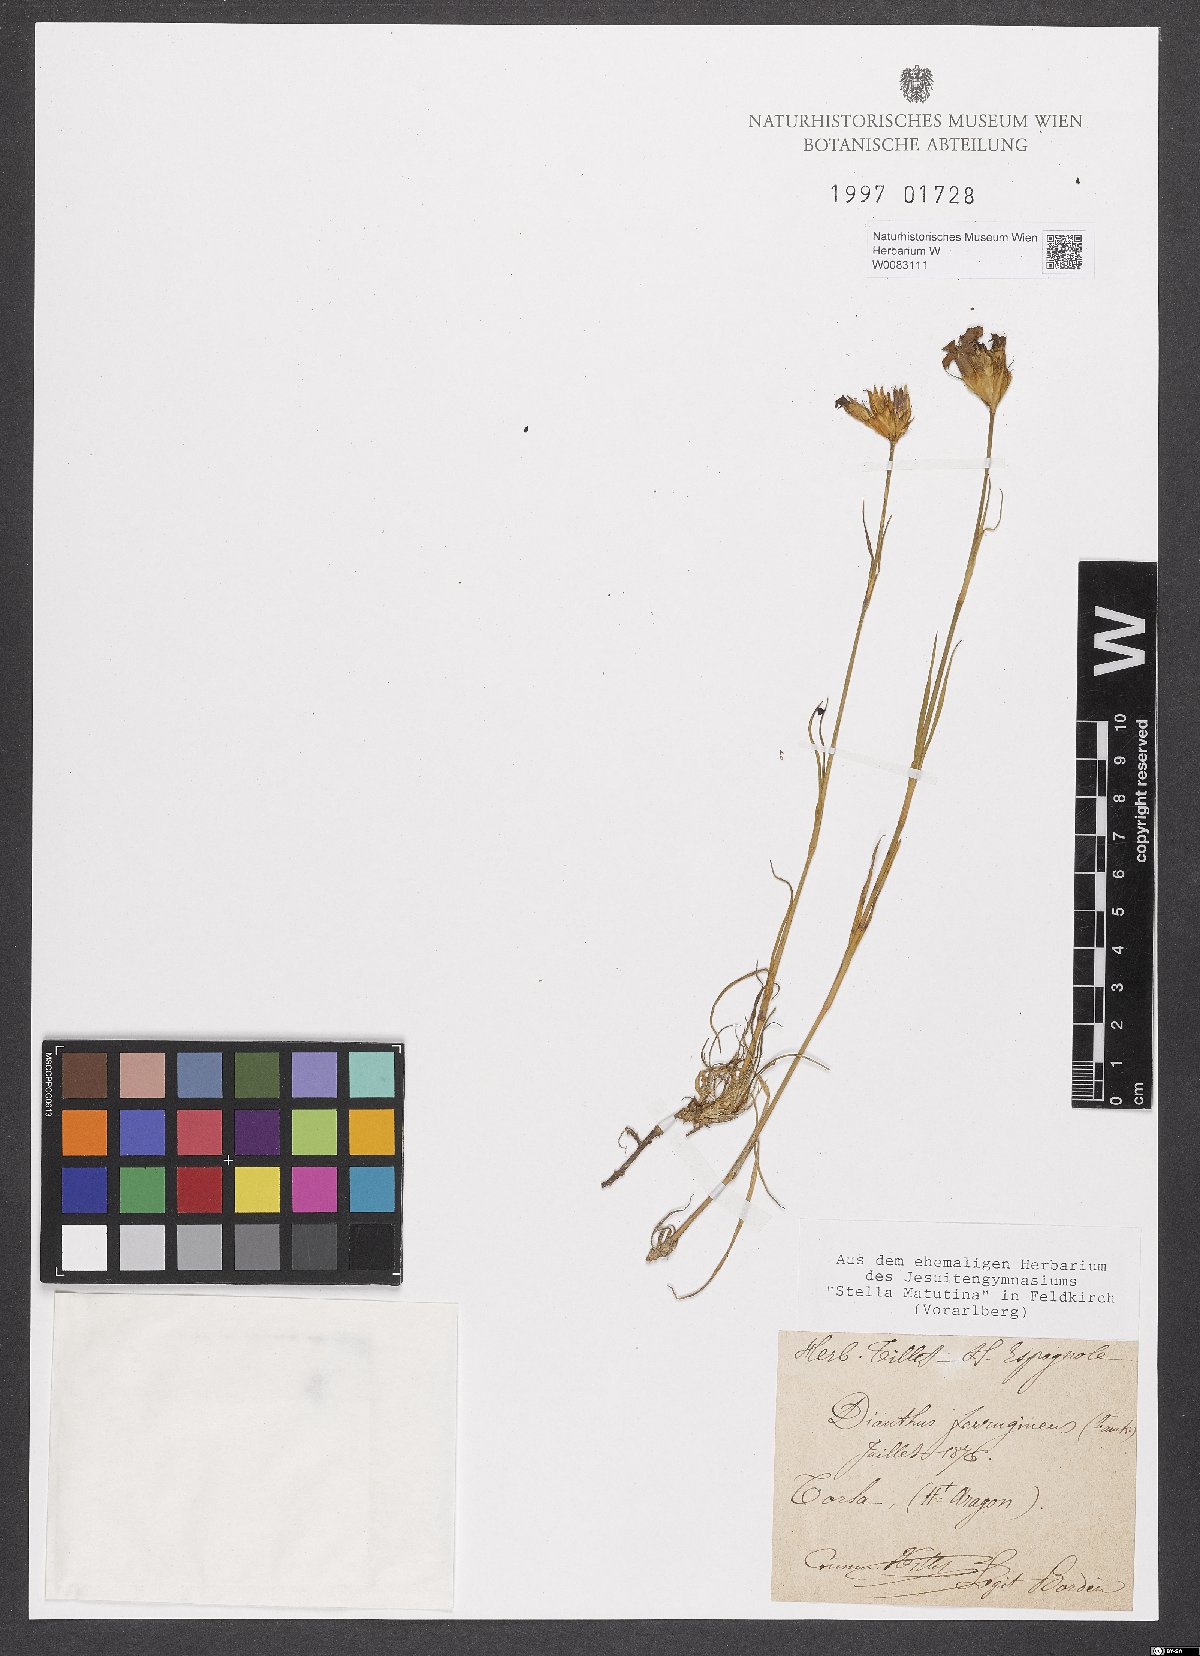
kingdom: Plantae
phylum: Tracheophyta
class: Magnoliopsida
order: Caryophyllales
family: Caryophyllaceae
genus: Dianthus
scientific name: Dianthus crassipes
